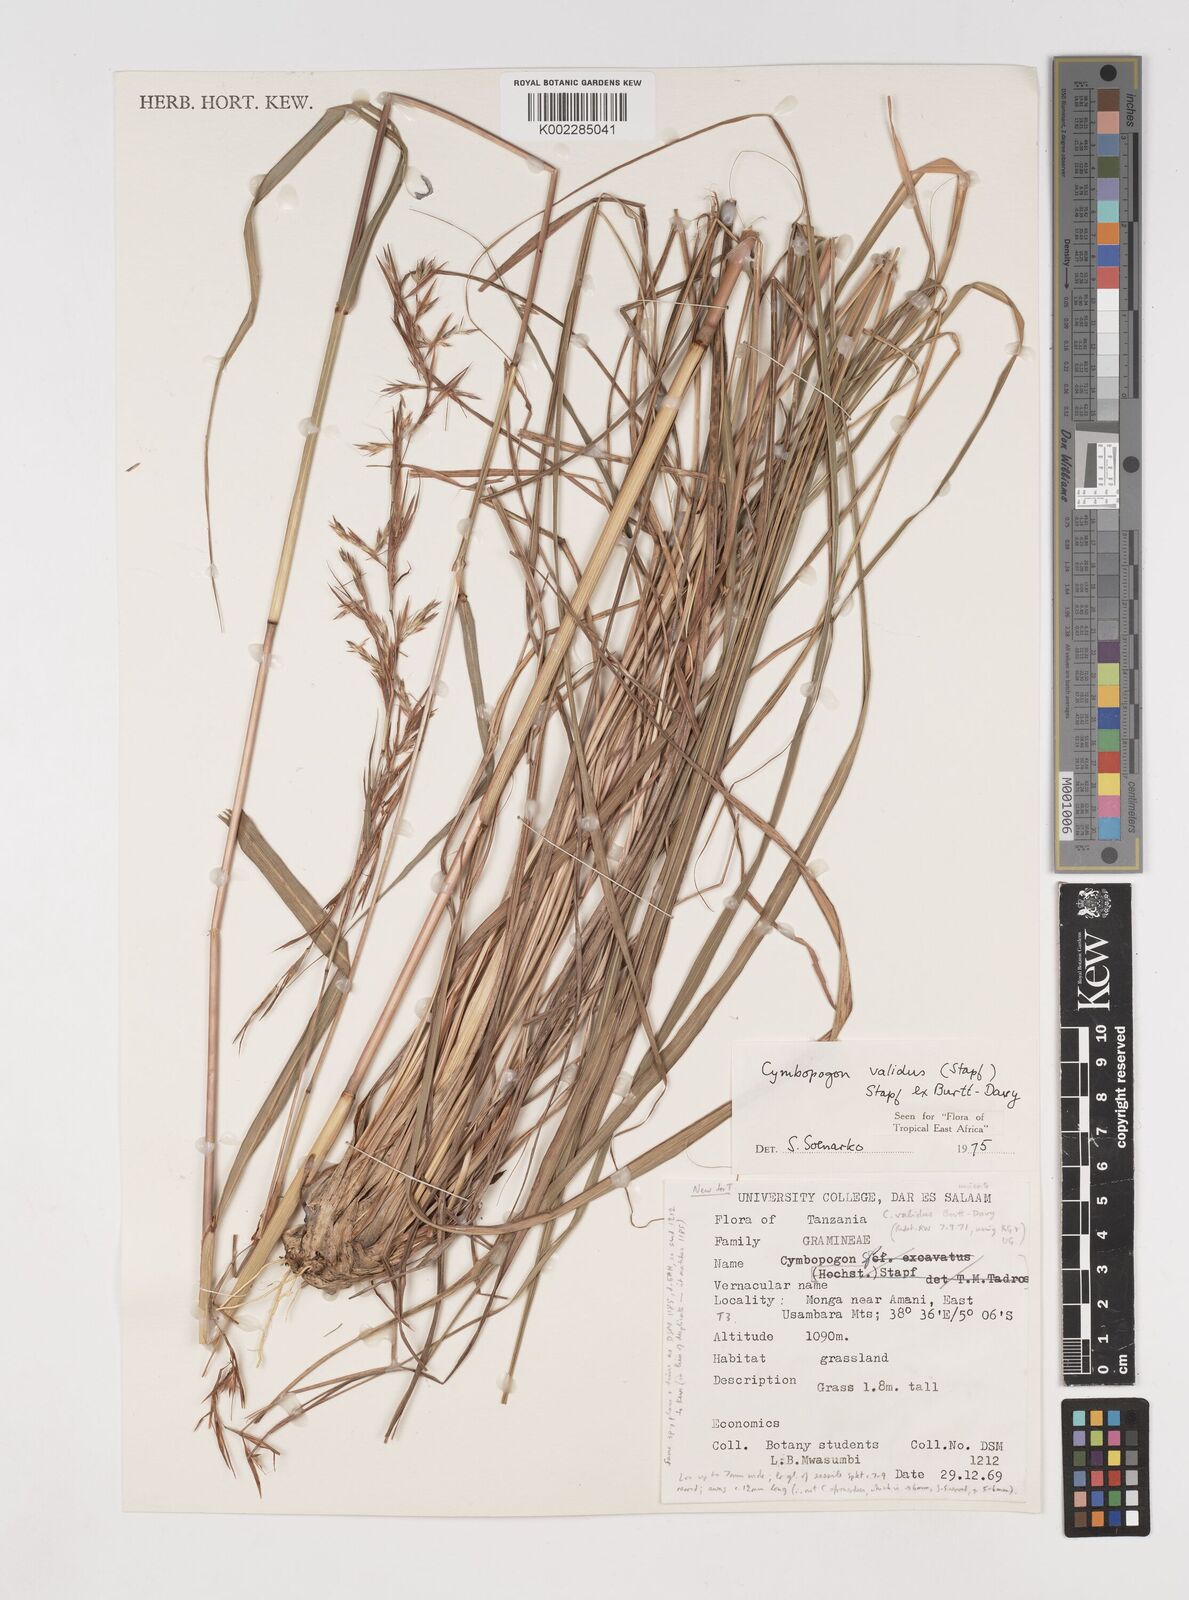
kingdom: Plantae
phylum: Tracheophyta
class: Liliopsida
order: Poales
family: Poaceae
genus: Cymbopogon
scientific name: Cymbopogon nardus
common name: Giant turpentine grass
